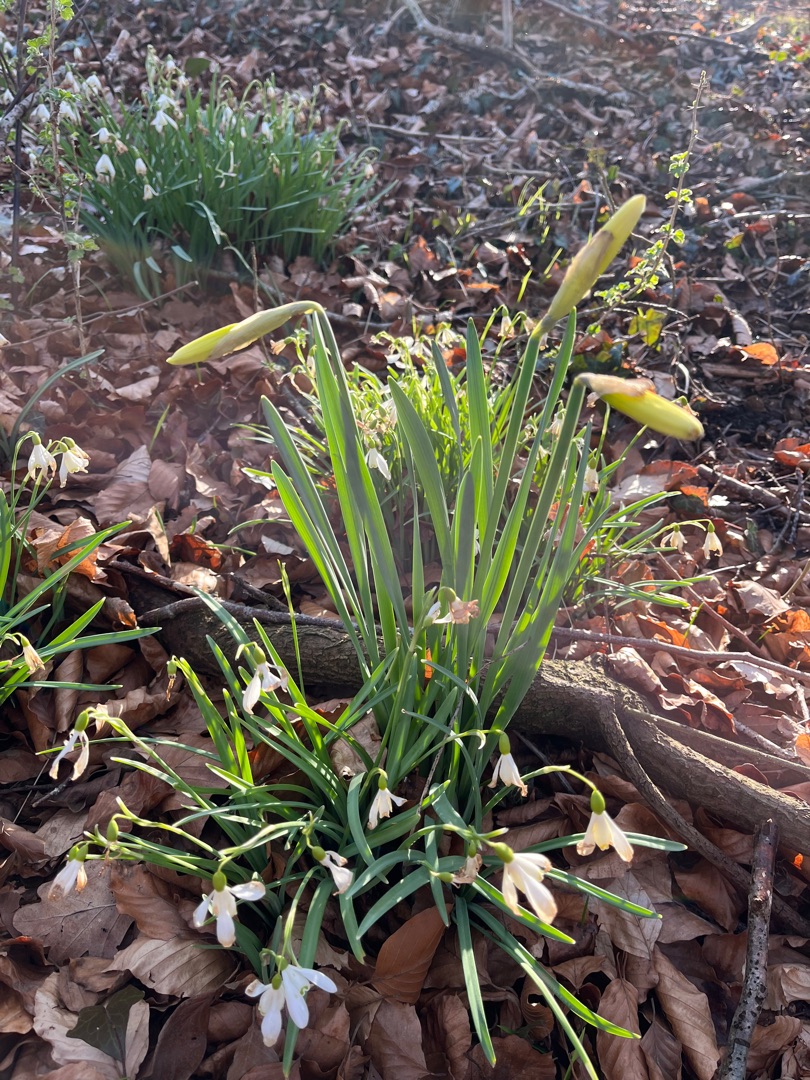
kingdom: Plantae
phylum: Tracheophyta
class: Liliopsida
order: Asparagales
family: Amaryllidaceae
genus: Narcissus
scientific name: Narcissus pseudonarcissus
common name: Påskelilje
